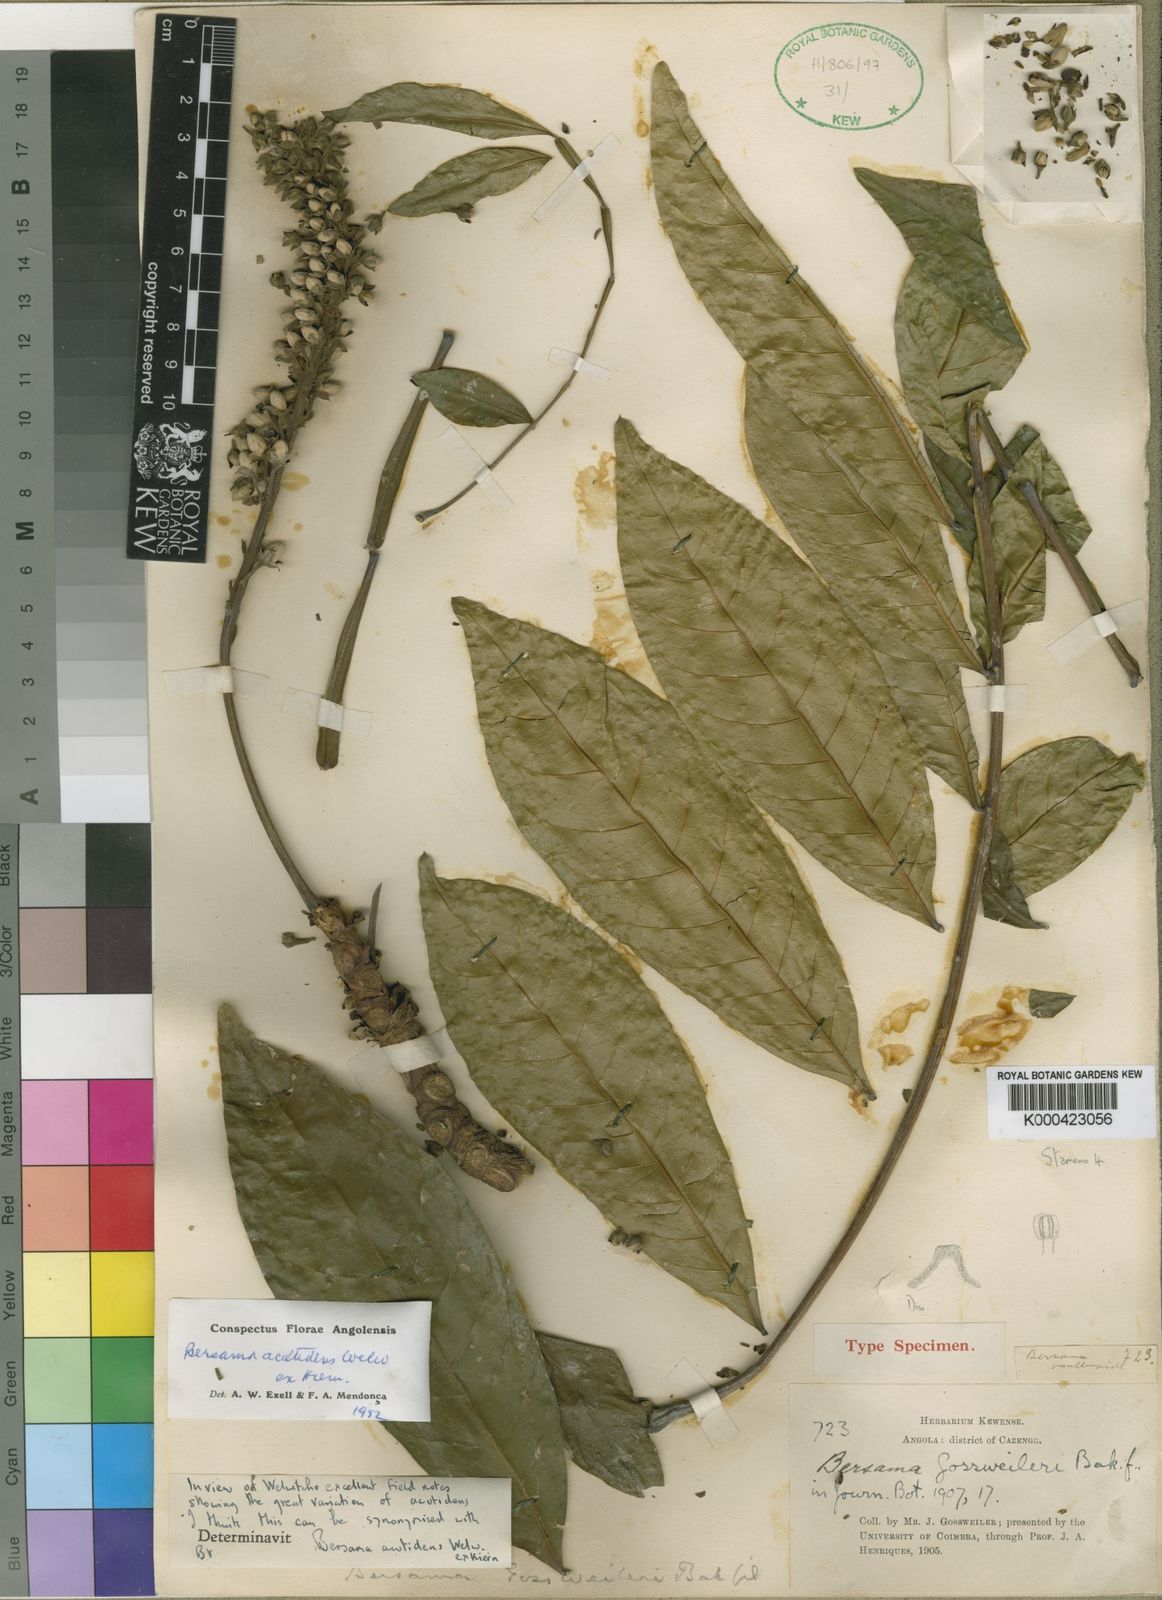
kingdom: Plantae
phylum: Tracheophyta
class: Magnoliopsida
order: Geraniales
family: Melianthaceae
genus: Bersama
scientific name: Bersama acutidens
